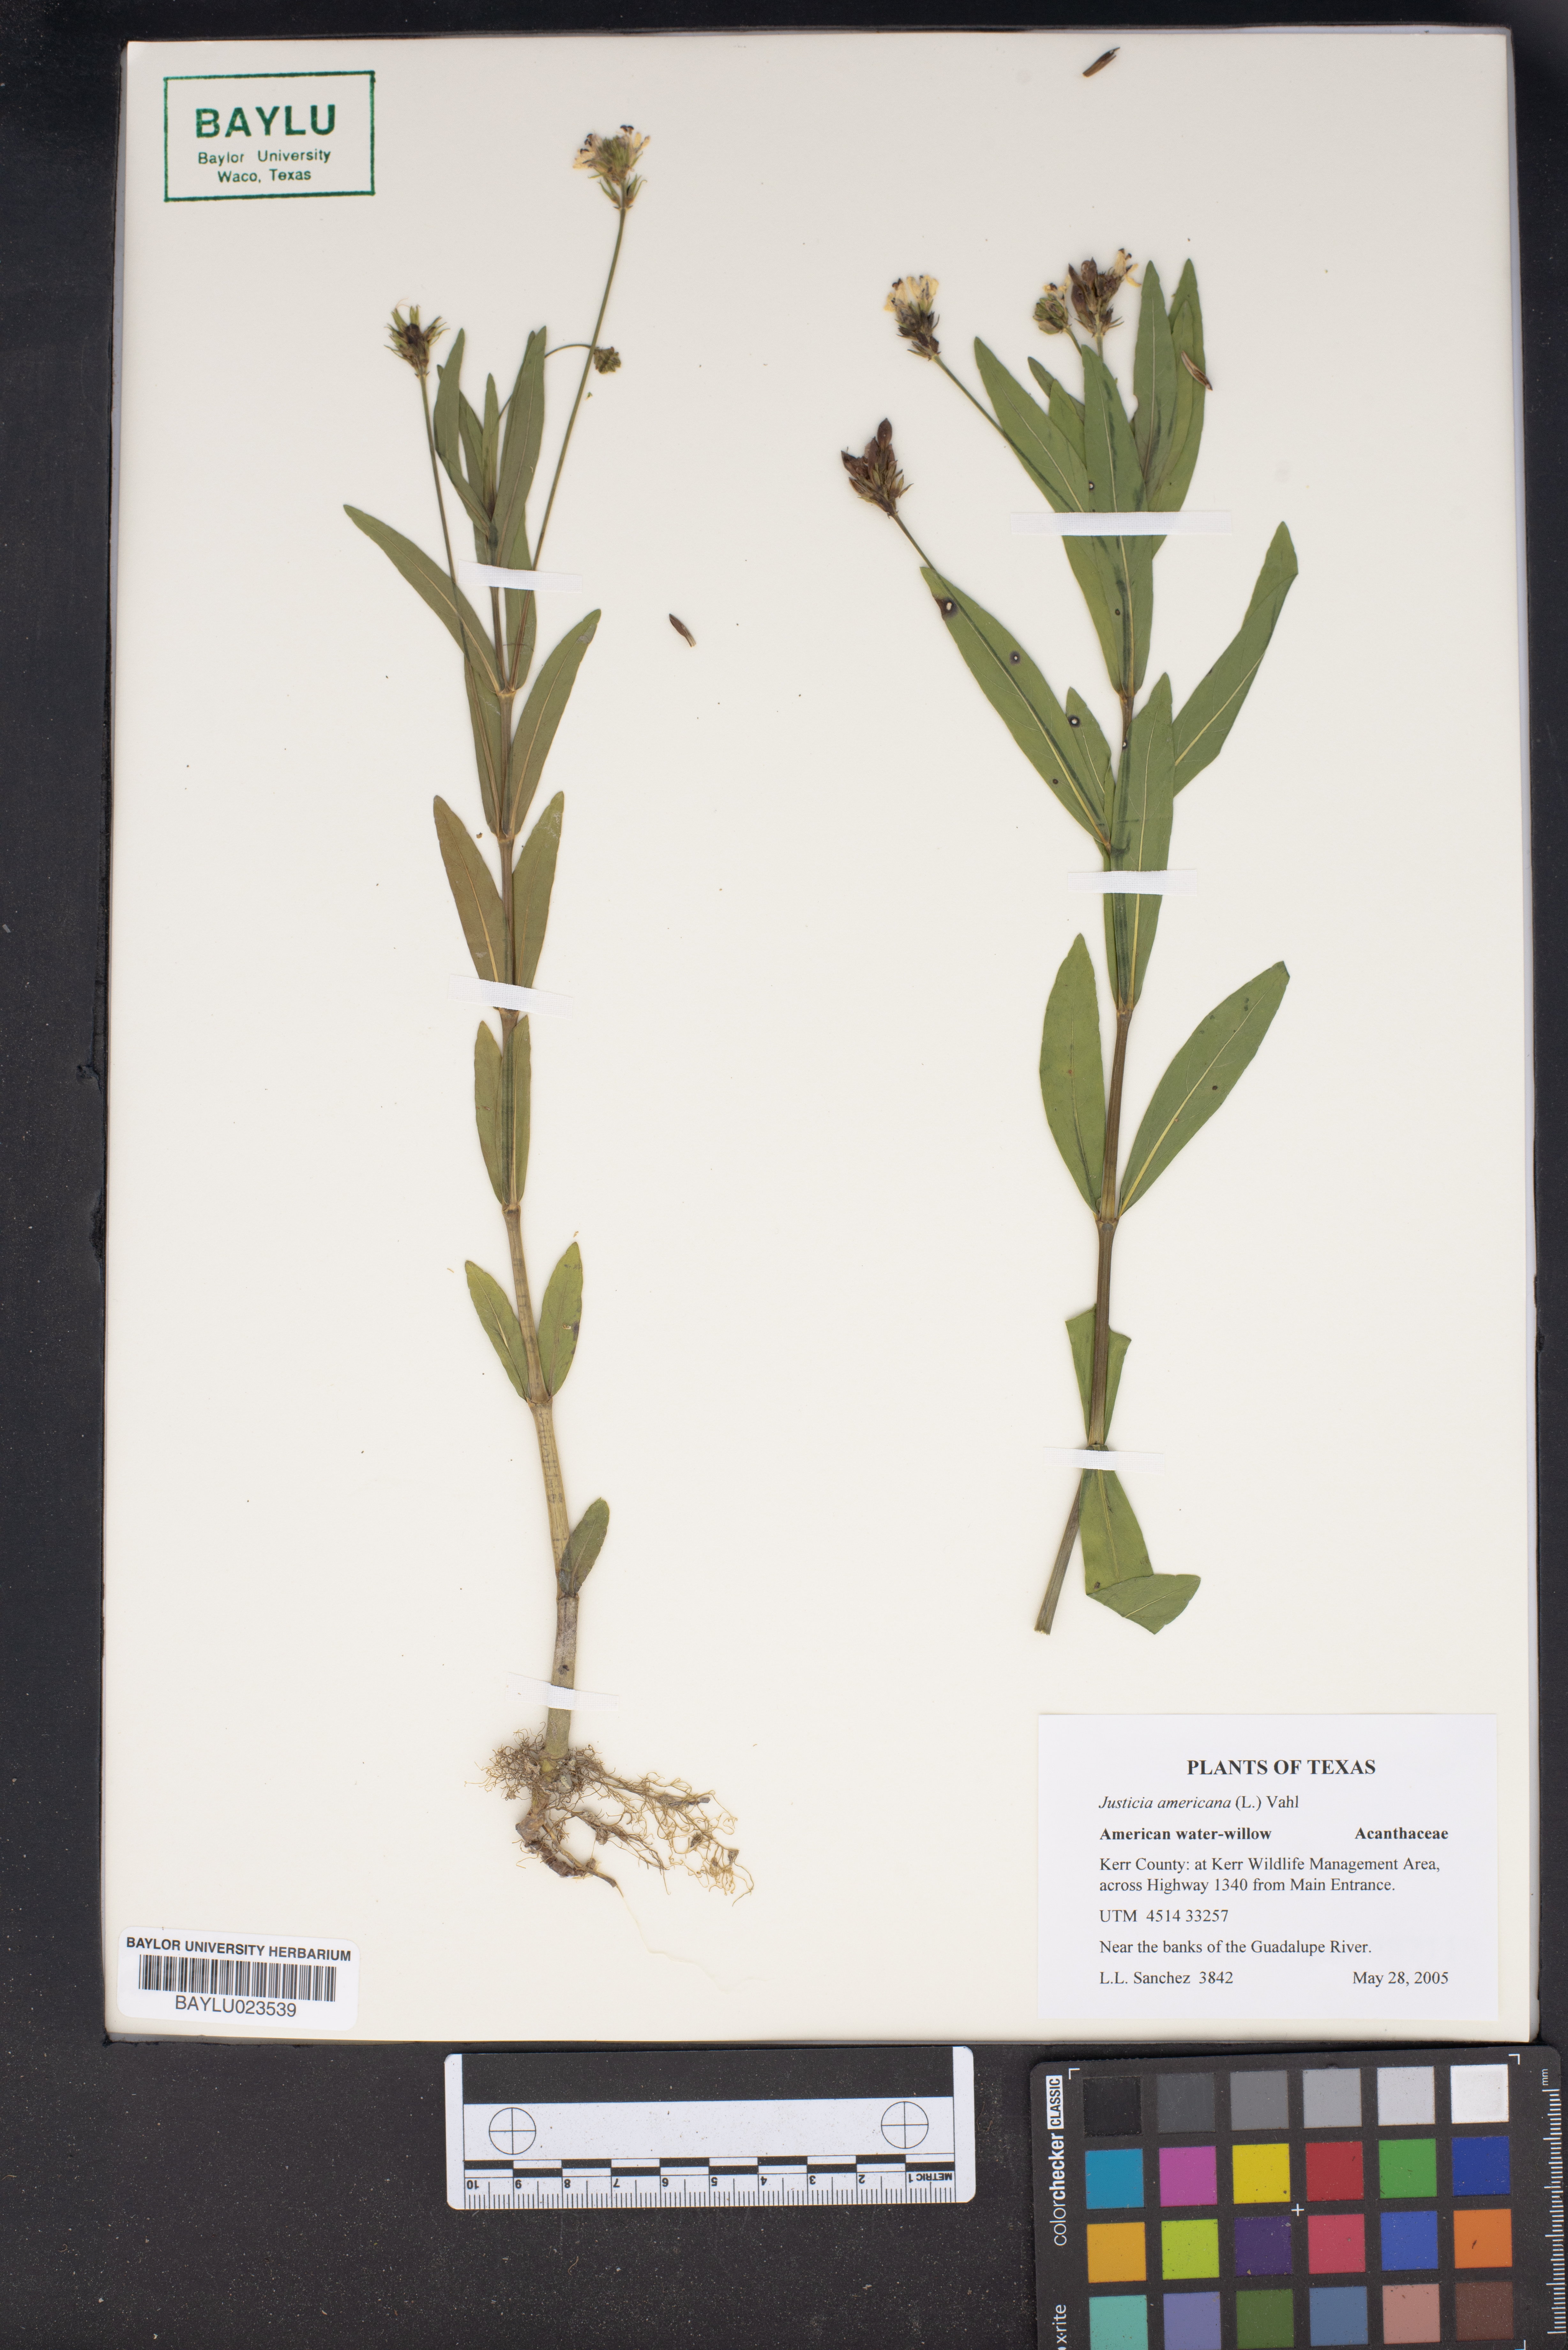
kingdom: Plantae
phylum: Tracheophyta
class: Magnoliopsida
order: Lamiales
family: Acanthaceae
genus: Dianthera
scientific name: Dianthera americana
